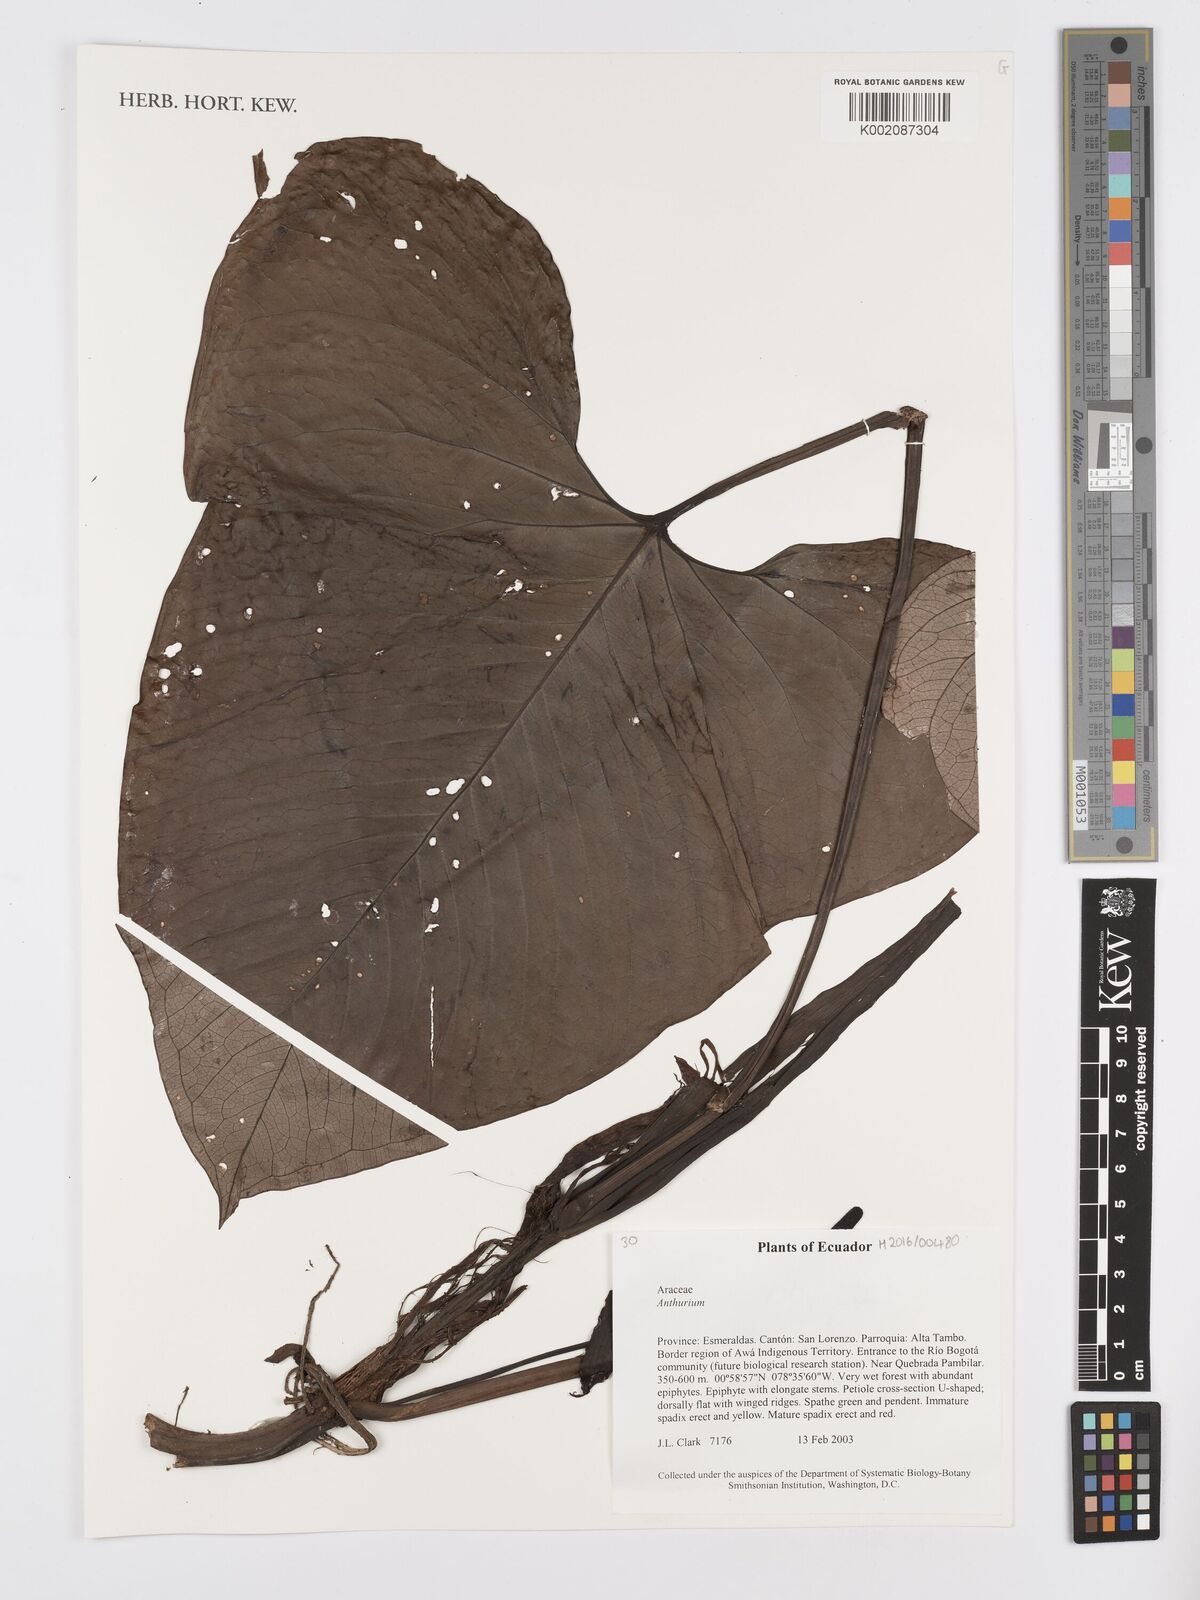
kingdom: Plantae
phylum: Tracheophyta
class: Liliopsida
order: Alismatales
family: Araceae
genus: Anthurium
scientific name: Anthurium
